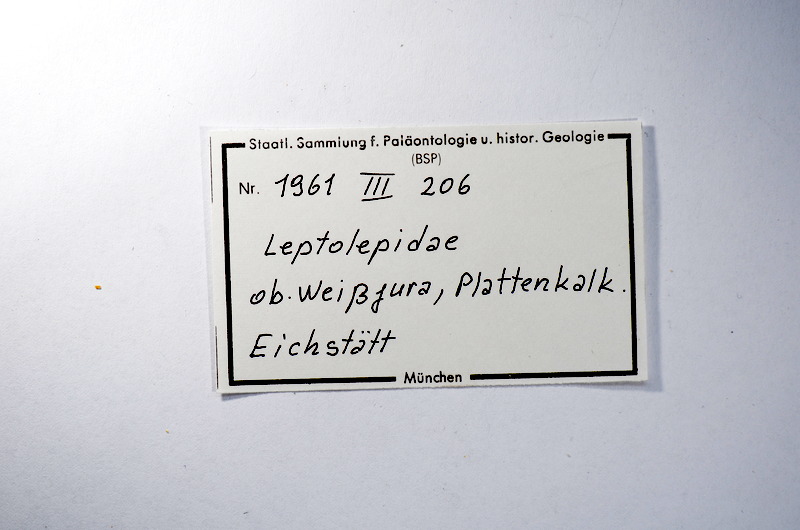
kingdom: Animalia
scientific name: Animalia
